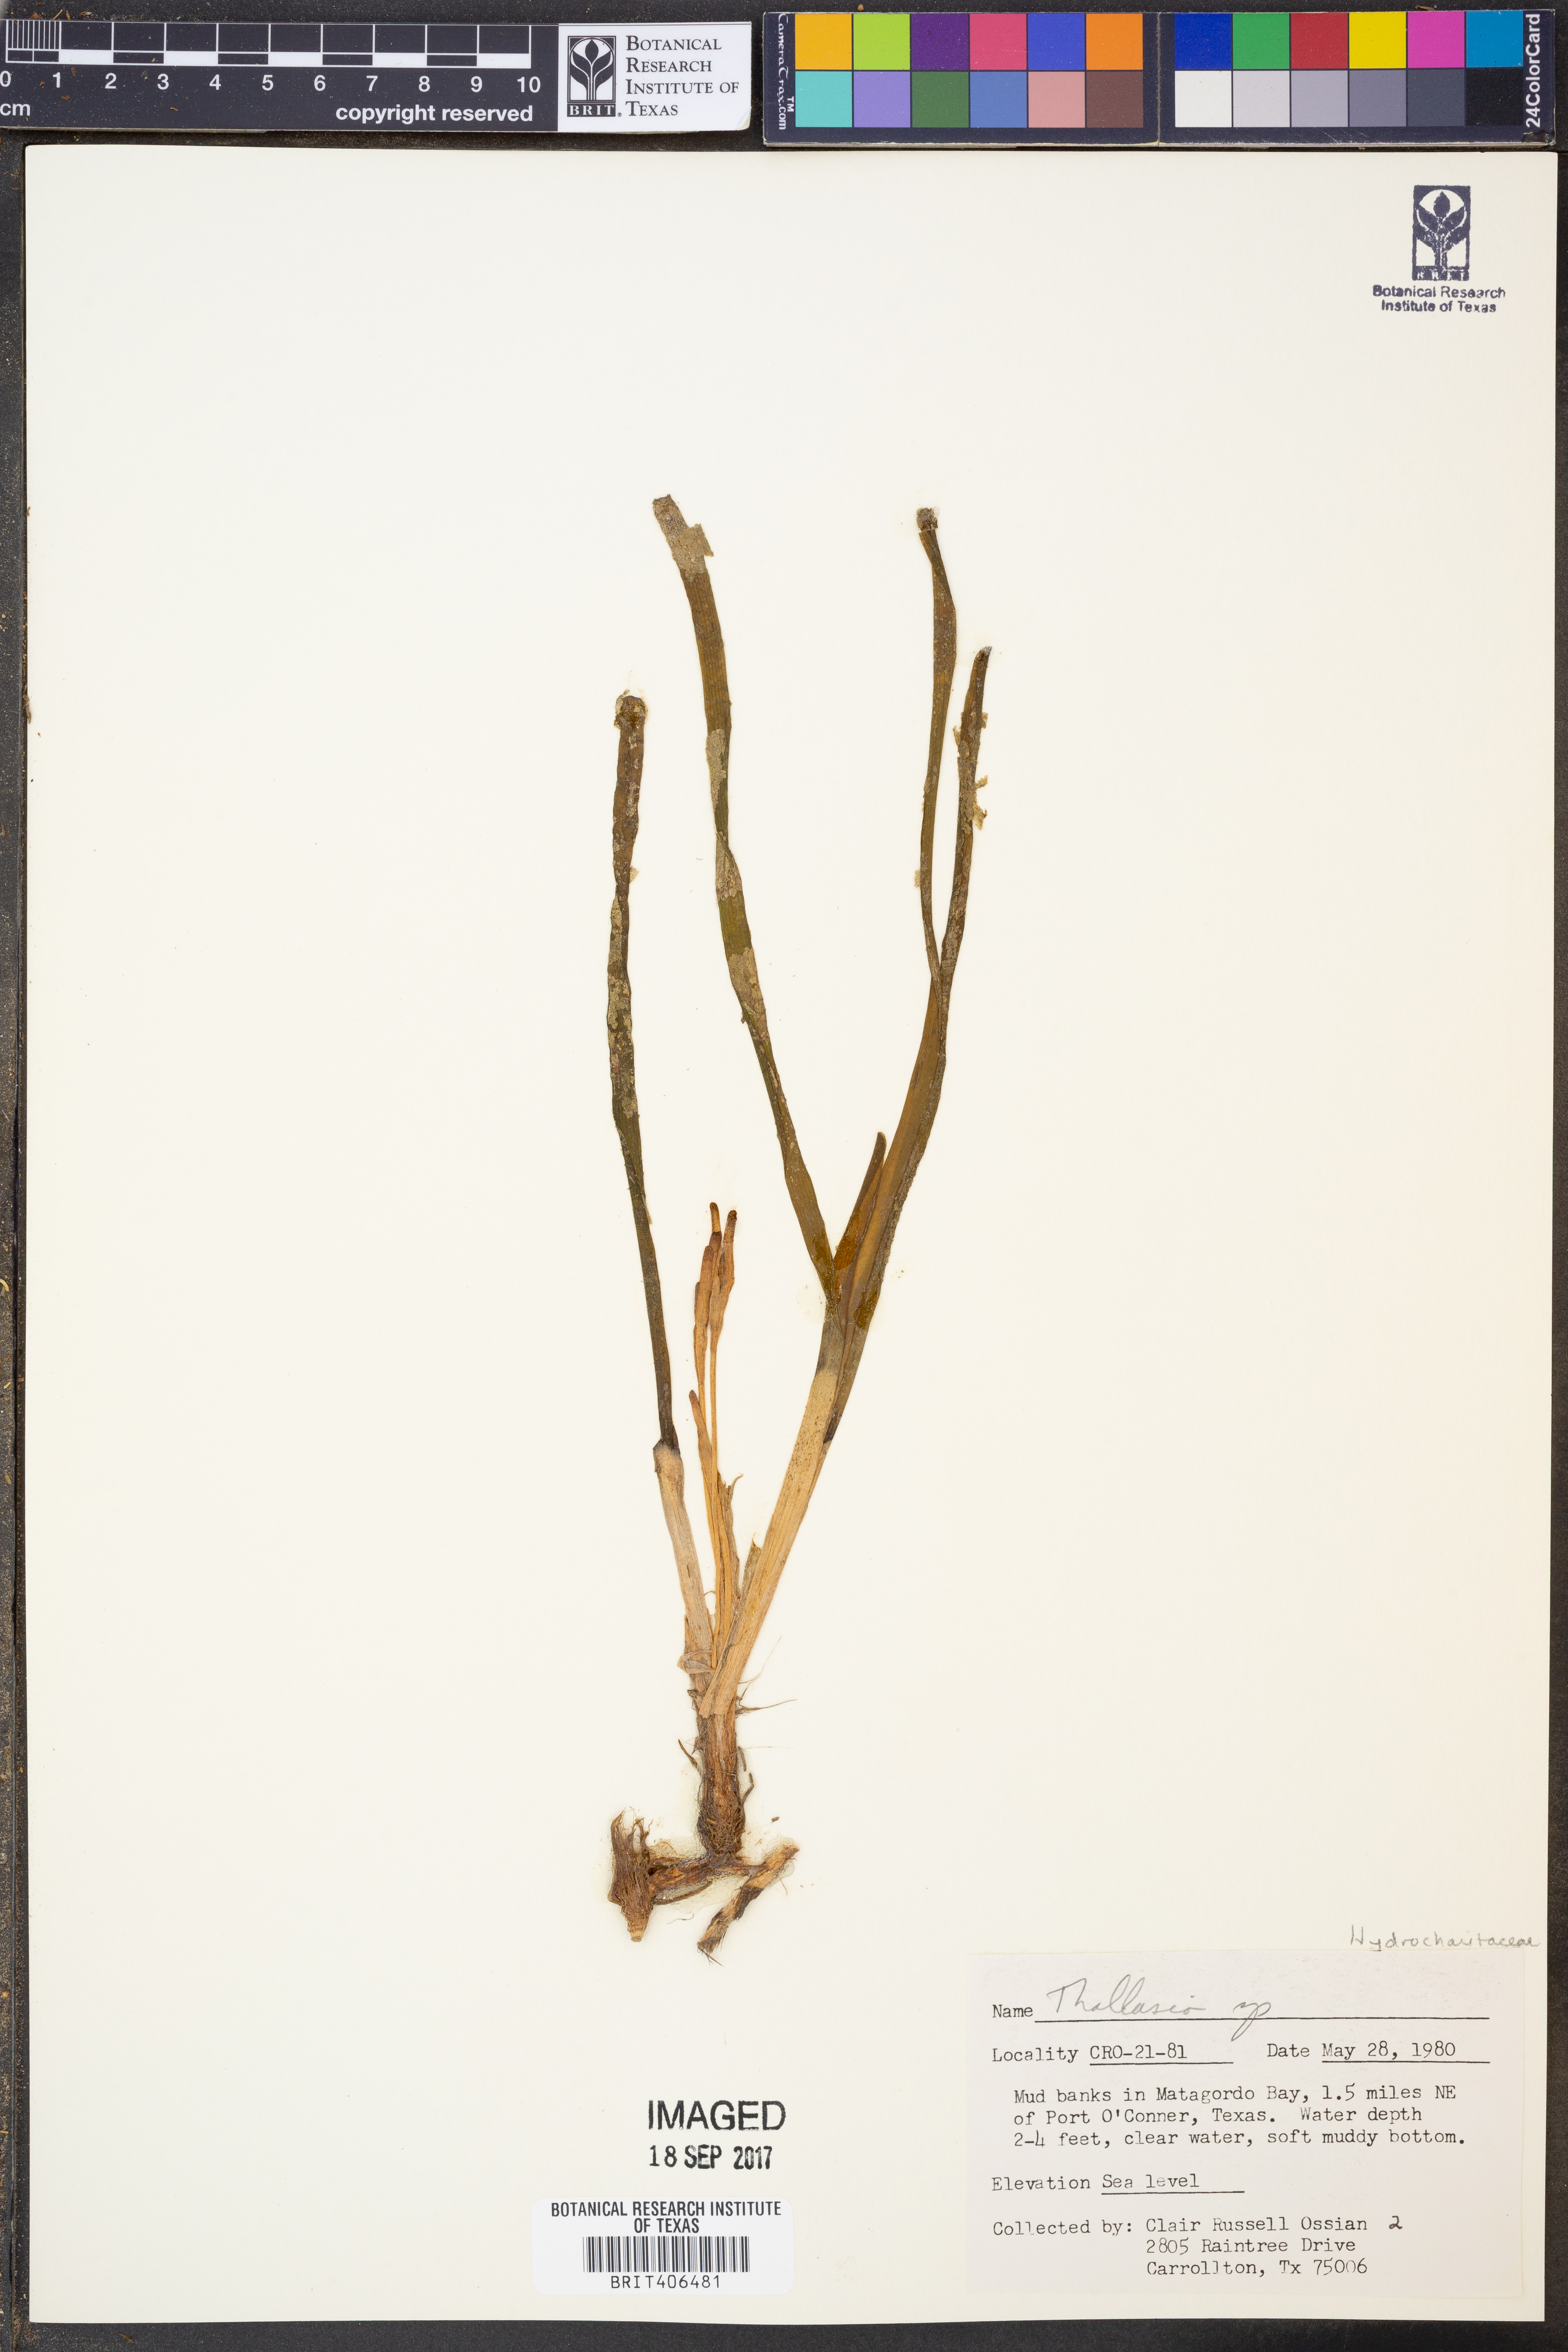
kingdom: Plantae
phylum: Tracheophyta
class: Liliopsida
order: Alismatales
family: Hydrocharitaceae
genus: Thalassia
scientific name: Thalassia
